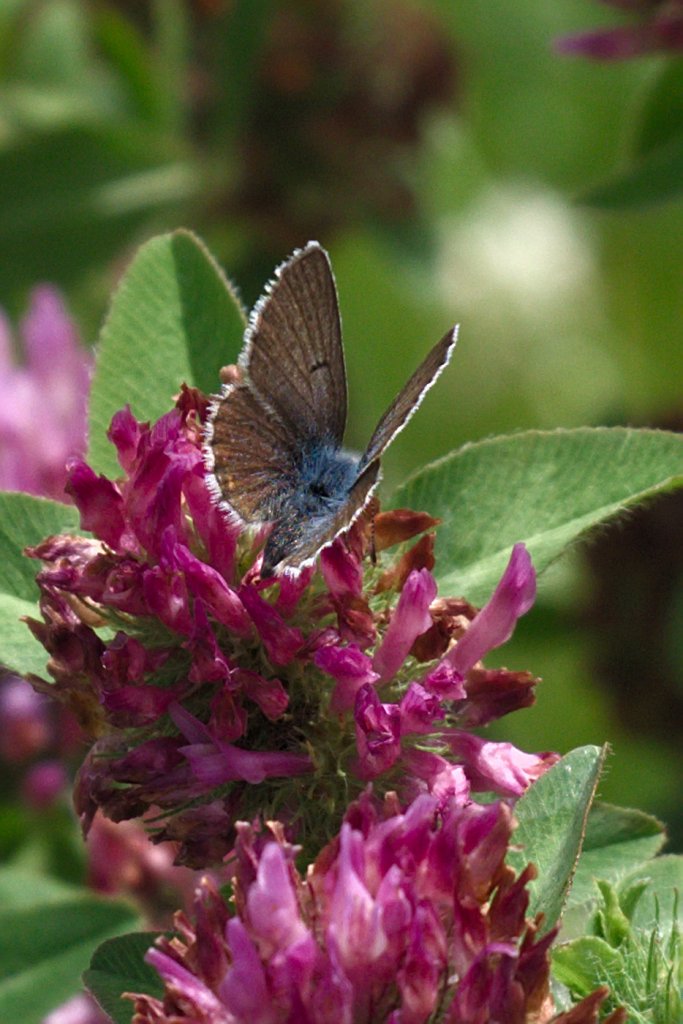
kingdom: Animalia
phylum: Arthropoda
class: Insecta
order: Lepidoptera
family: Lycaenidae
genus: Plebejus
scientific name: Plebejus saepiolus
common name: Greenish Blue
